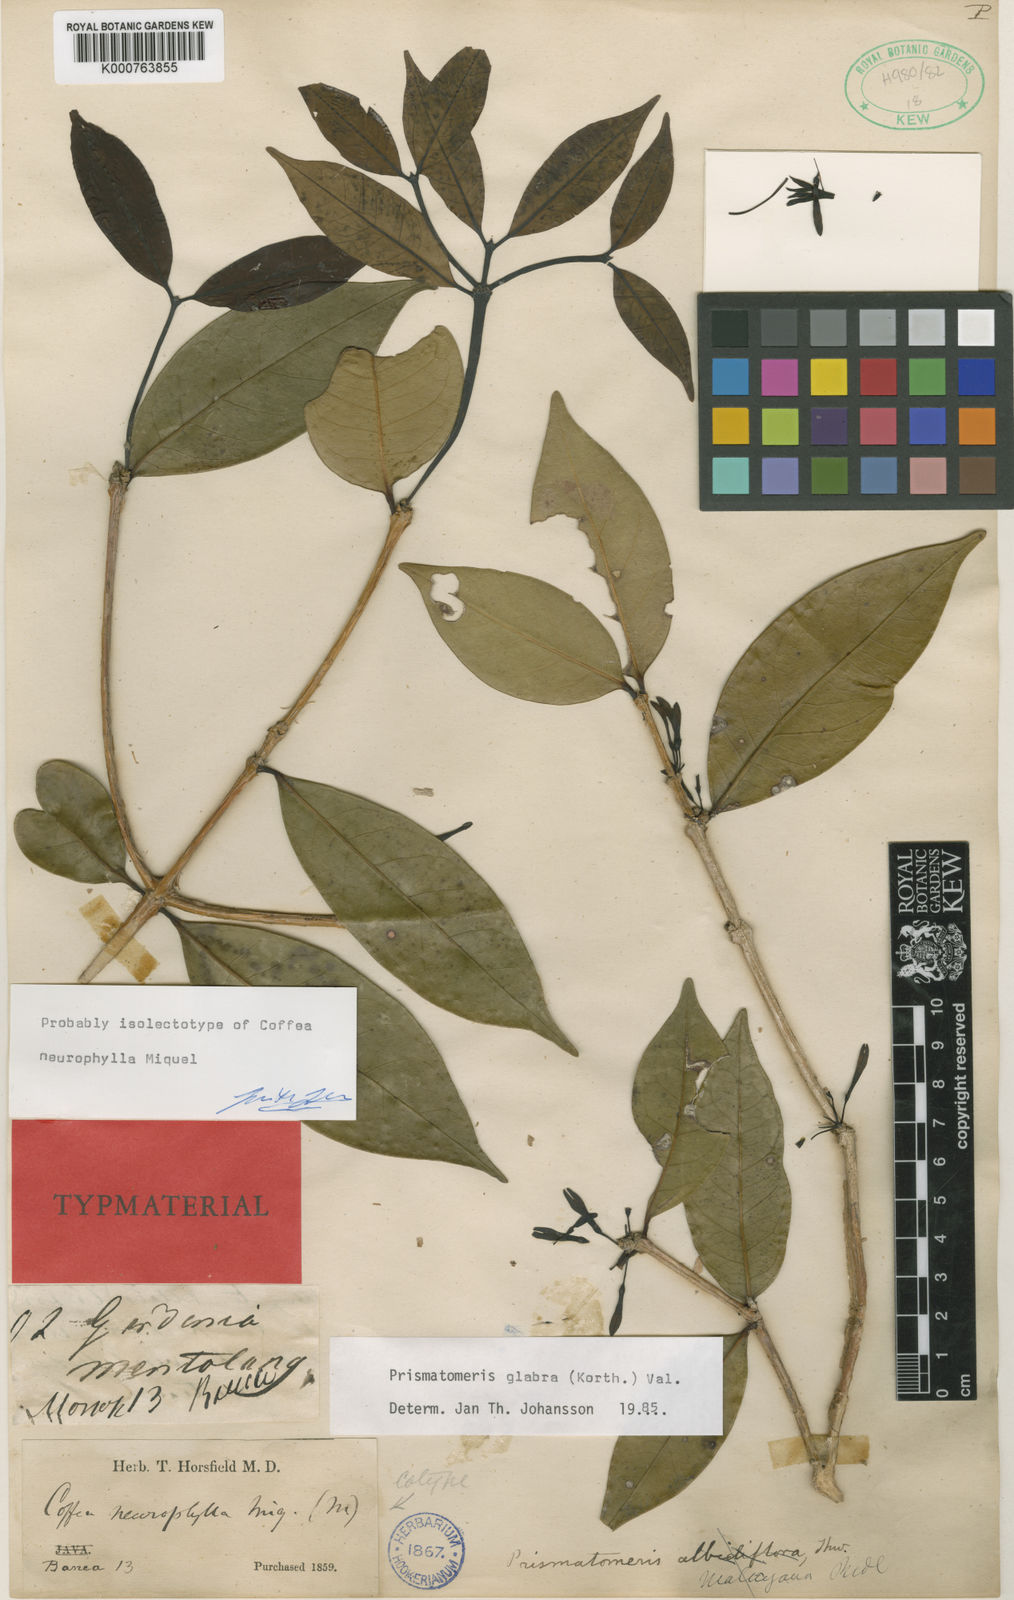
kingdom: Plantae
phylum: Tracheophyta
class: Magnoliopsida
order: Gentianales
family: Rubiaceae
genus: Prismatomeris
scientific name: Prismatomeris glabra
